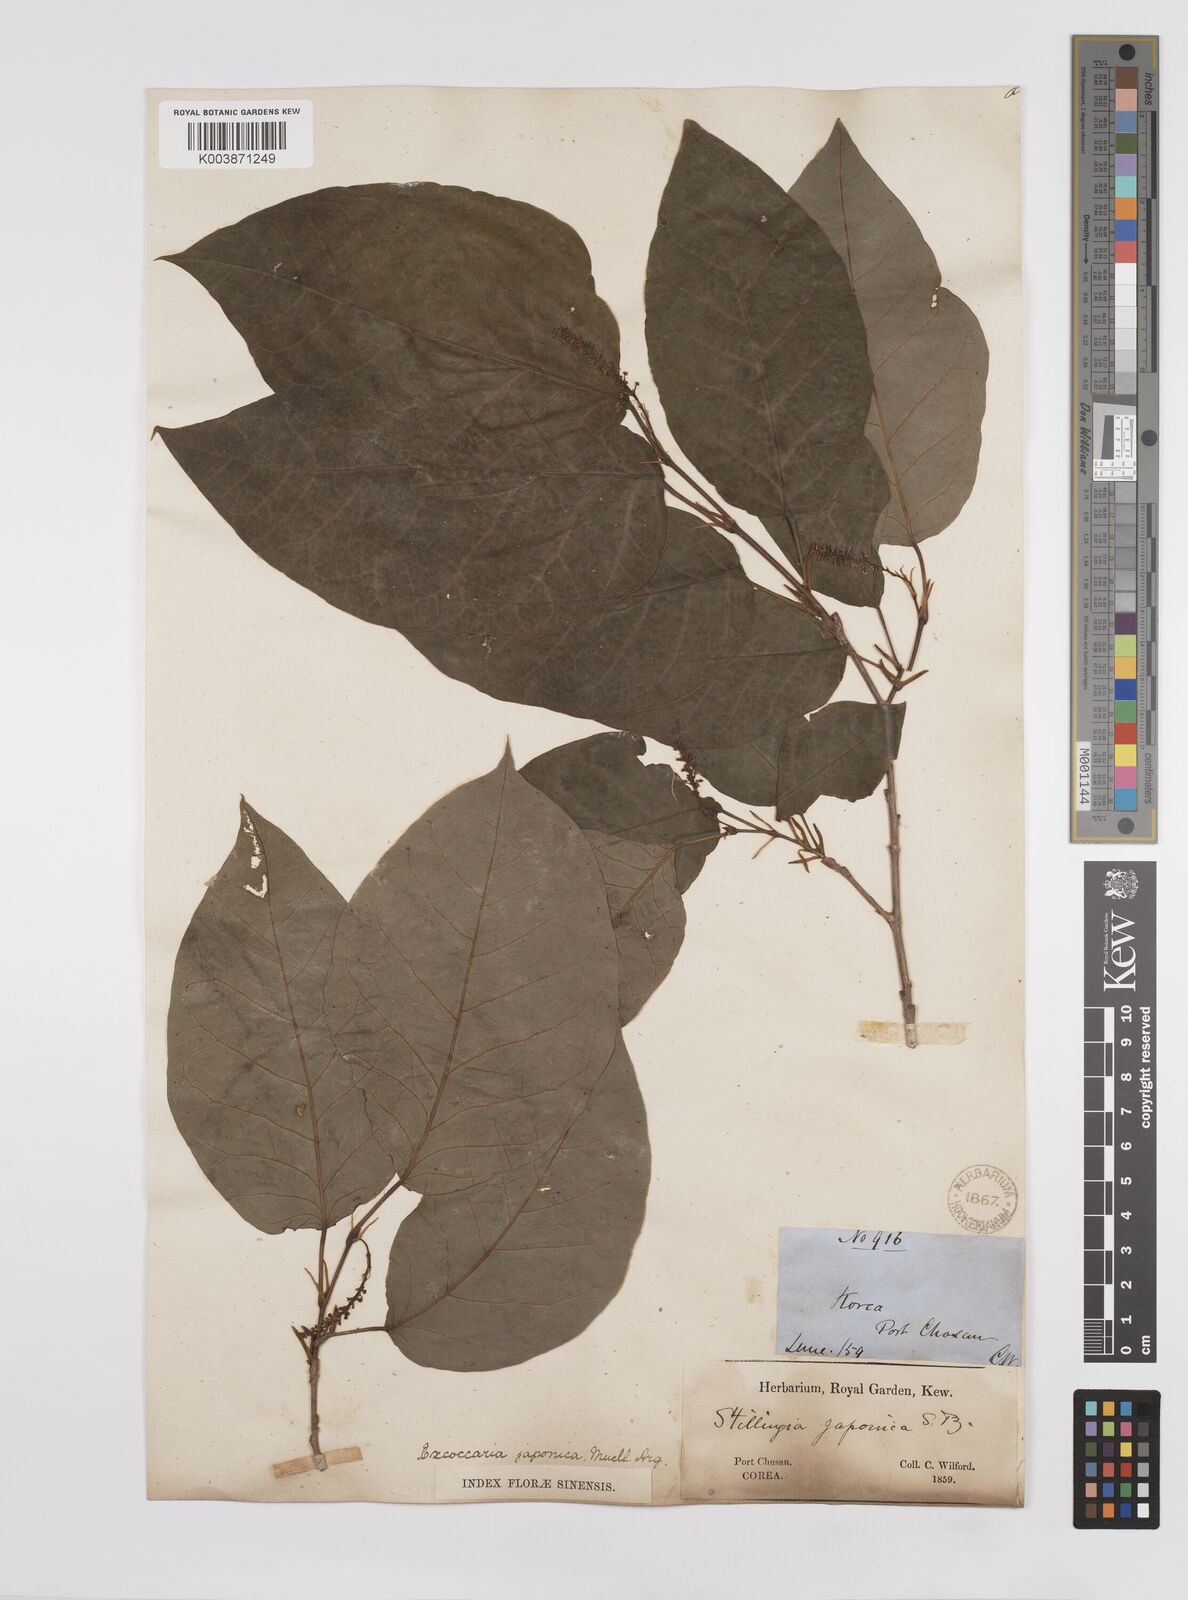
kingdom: Plantae
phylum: Tracheophyta
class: Magnoliopsida
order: Malpighiales
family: Euphorbiaceae
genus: Neoshirakia
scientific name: Neoshirakia japonica
